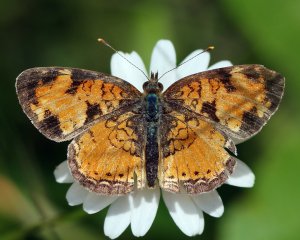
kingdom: Animalia
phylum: Arthropoda
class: Insecta
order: Lepidoptera
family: Nymphalidae
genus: Phyciodes
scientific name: Phyciodes tharos
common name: Northern Crescent
